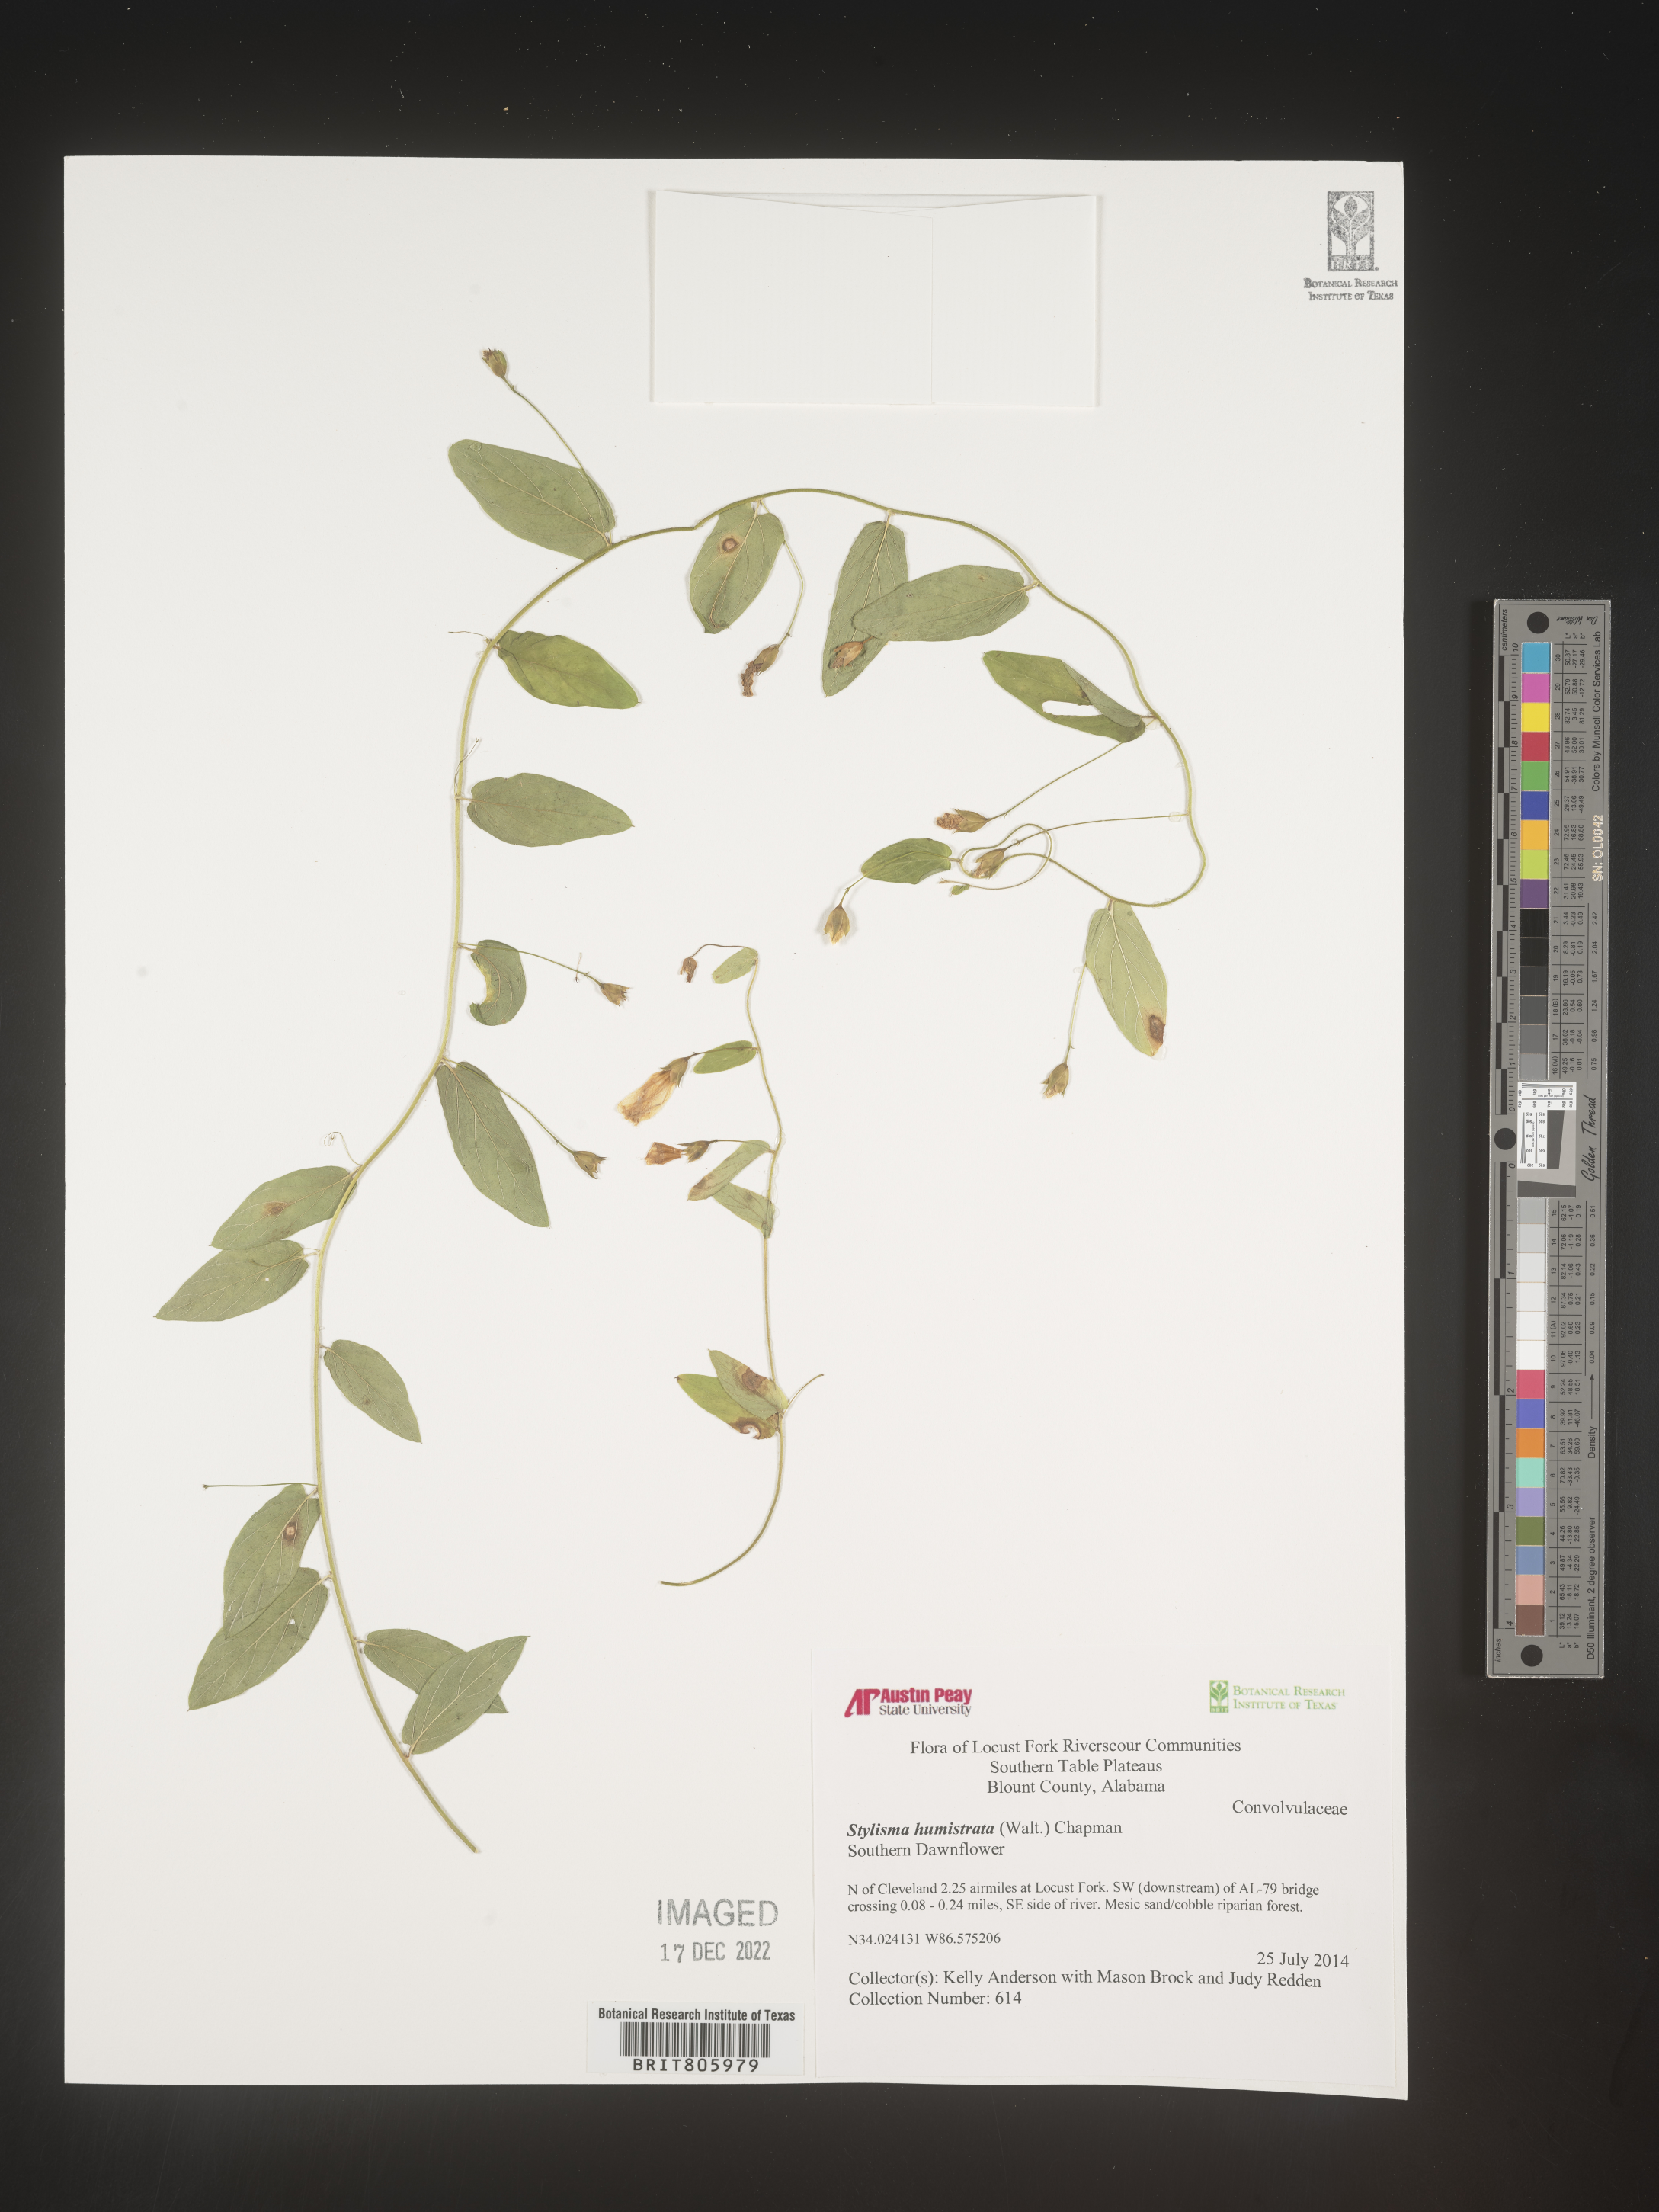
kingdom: Plantae
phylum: Tracheophyta
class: Magnoliopsida
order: Solanales
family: Convolvulaceae
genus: Stylisma
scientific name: Stylisma humistrata
